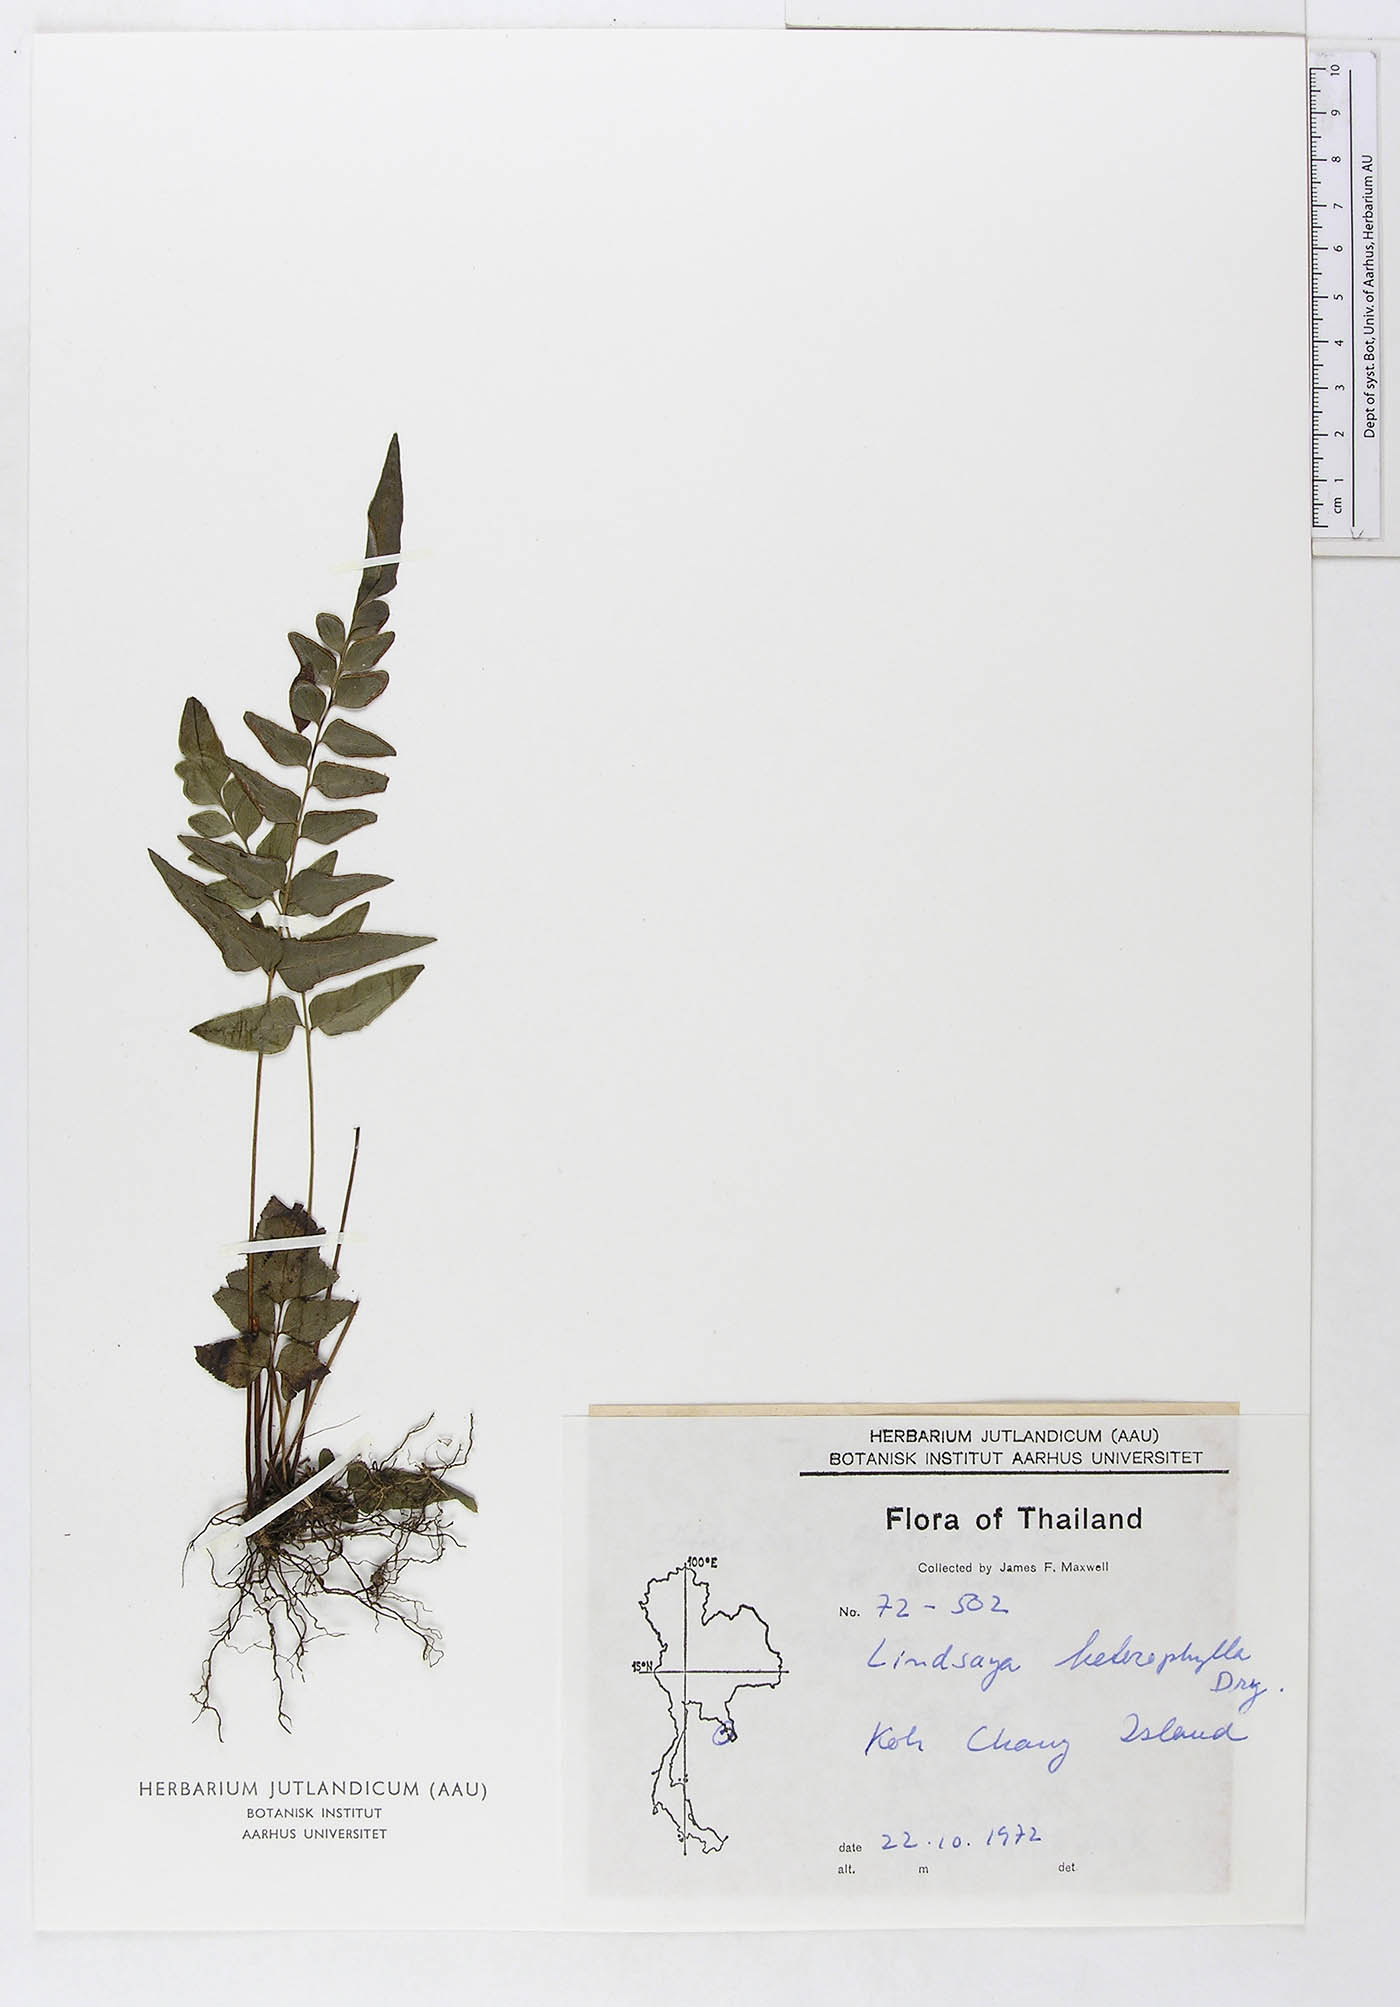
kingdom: Plantae
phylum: Tracheophyta
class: Polypodiopsida
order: Polypodiales
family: Lindsaeaceae
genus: Lindsaea
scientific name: Lindsaea heterophylla
